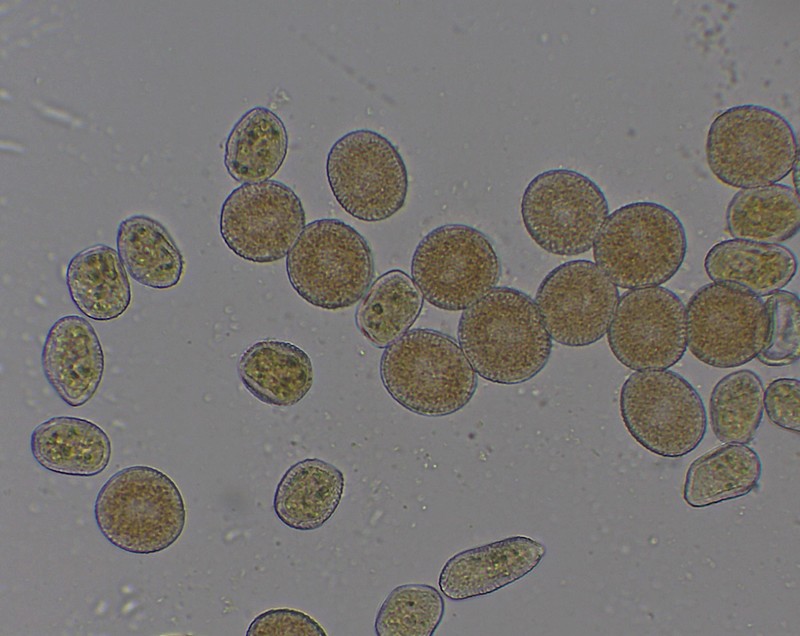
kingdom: Fungi
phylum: Basidiomycota
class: Pucciniomycetes
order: Pucciniales
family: Pucciniaceae
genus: Puccinia
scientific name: Puccinia porri
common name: Allium rust
